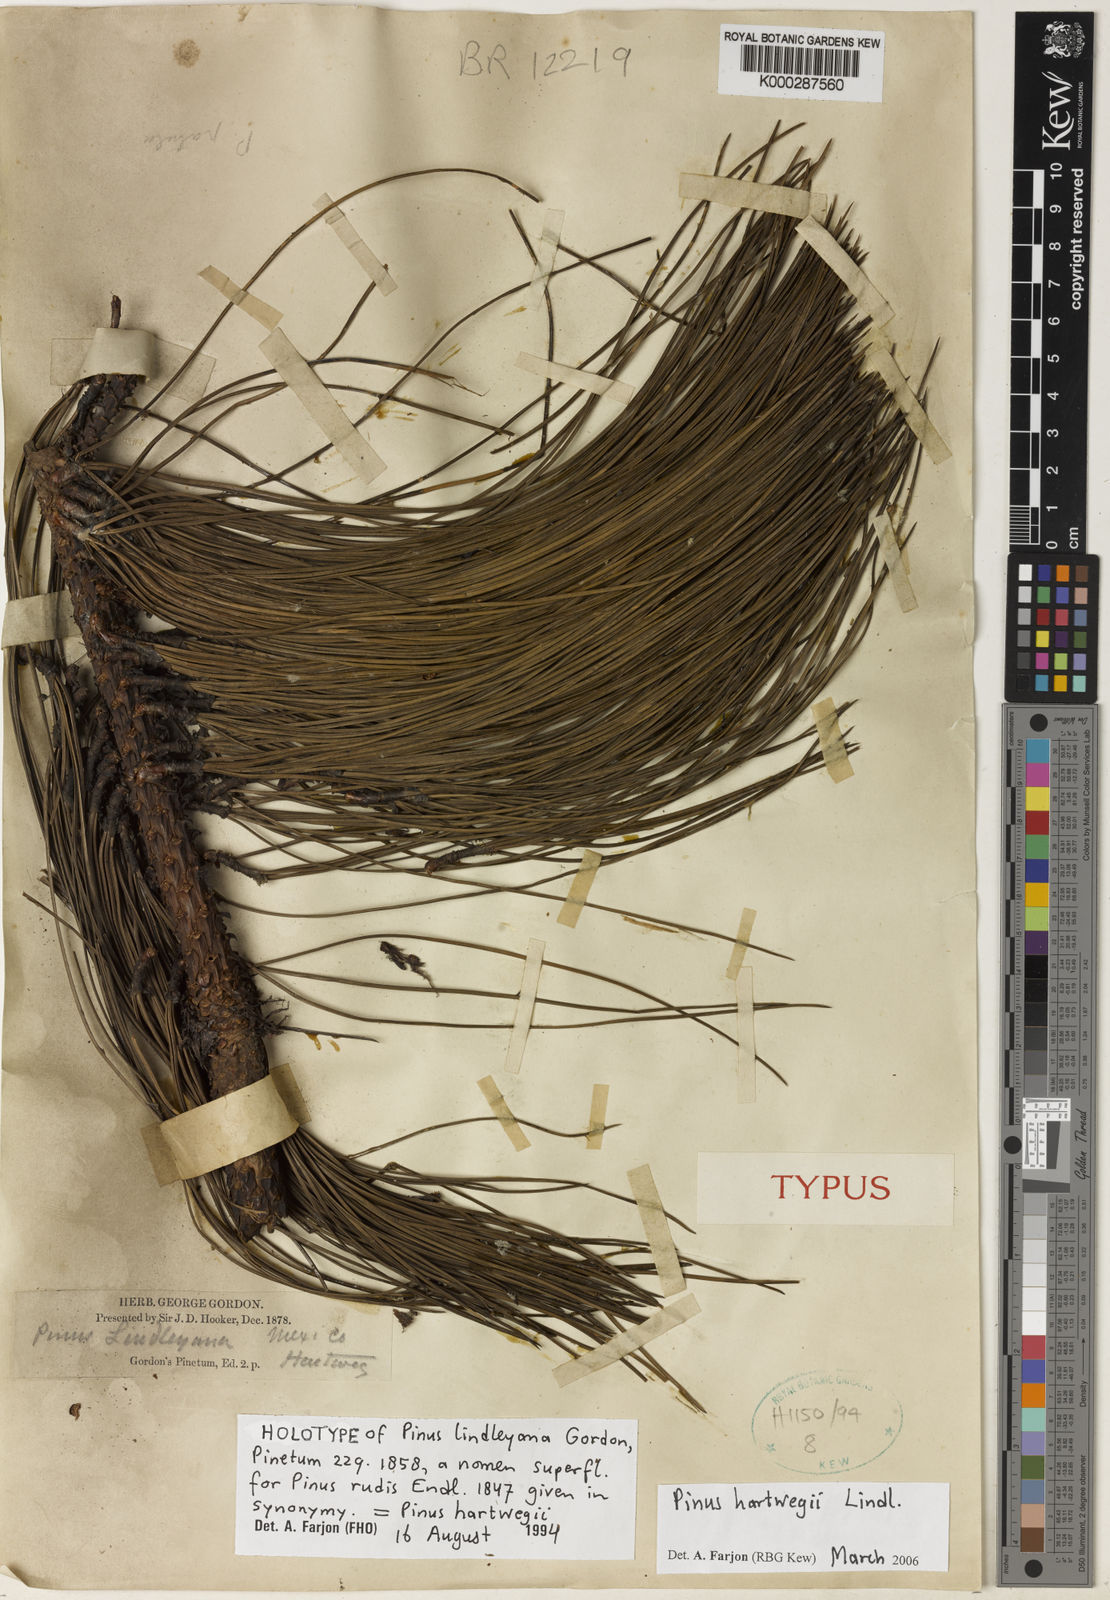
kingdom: Plantae
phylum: Tracheophyta
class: Pinopsida
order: Pinales
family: Pinaceae
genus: Pinus
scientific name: Pinus hartwegii
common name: Hartweg's pine
